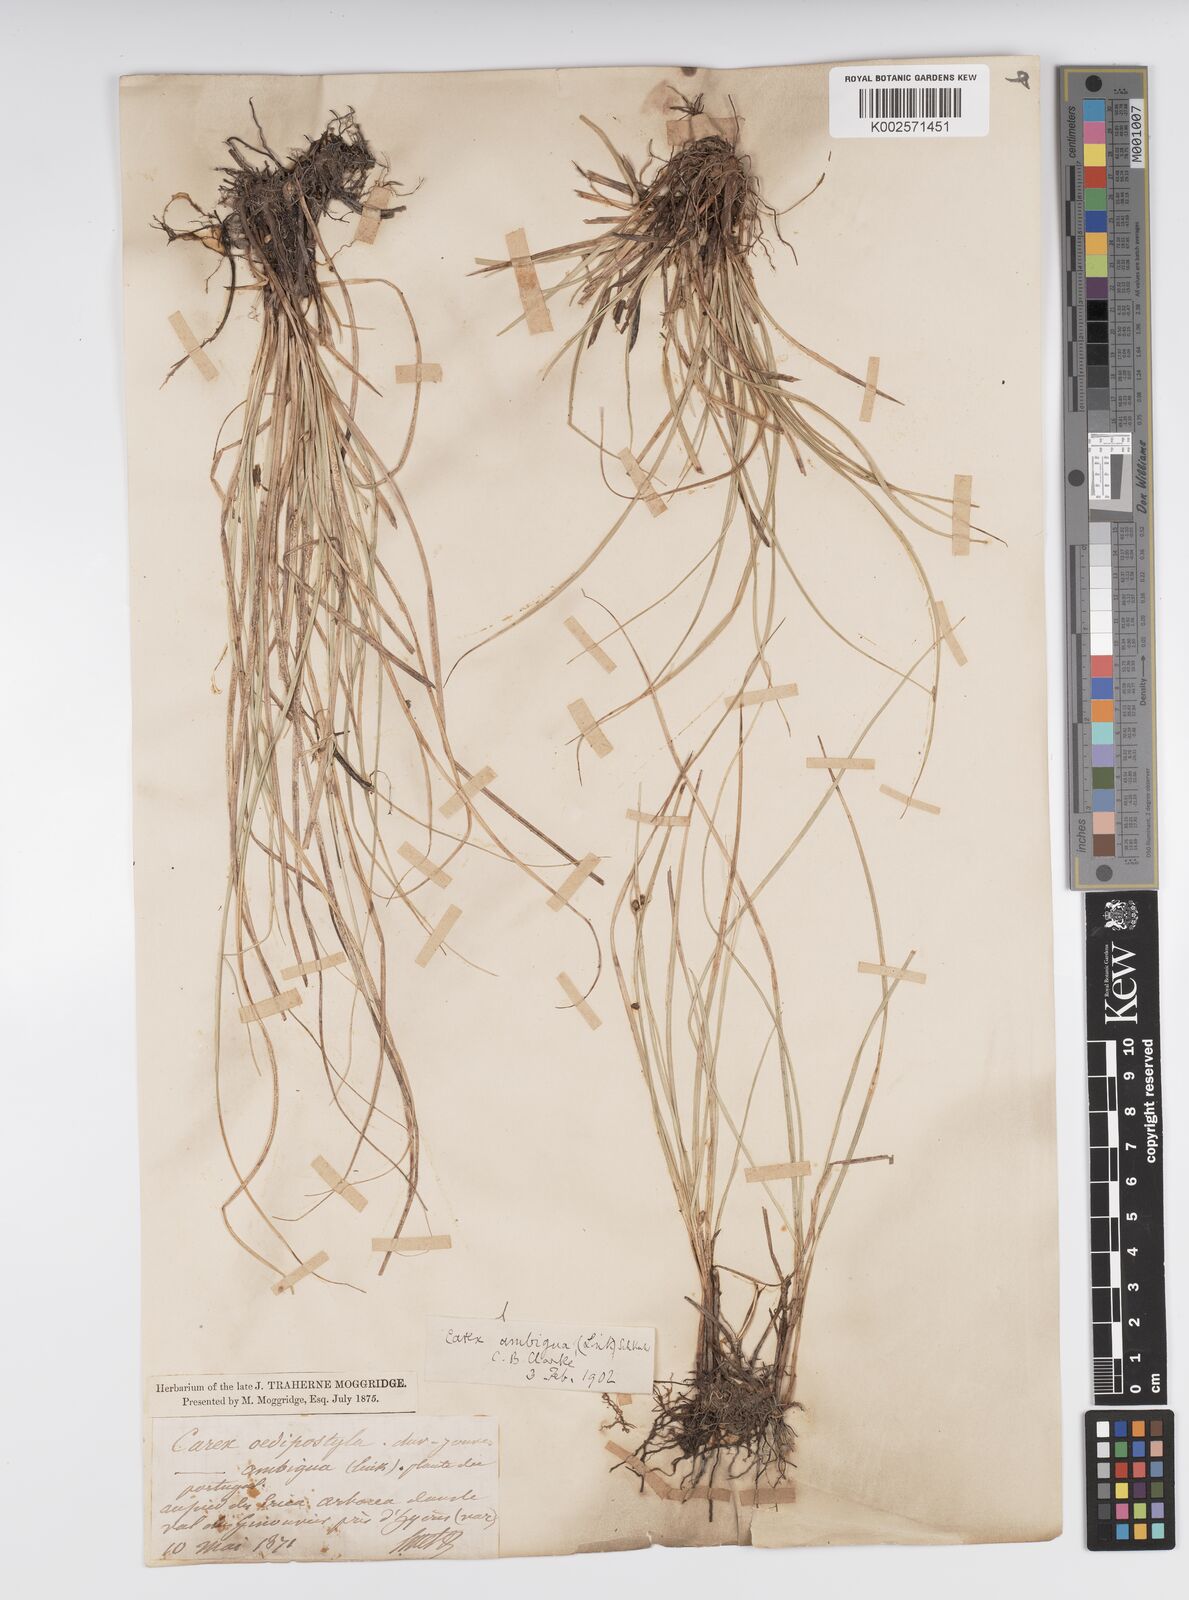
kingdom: Plantae
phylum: Tracheophyta
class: Liliopsida
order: Poales
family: Cyperaceae
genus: Carex
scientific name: Carex oedipostyla
